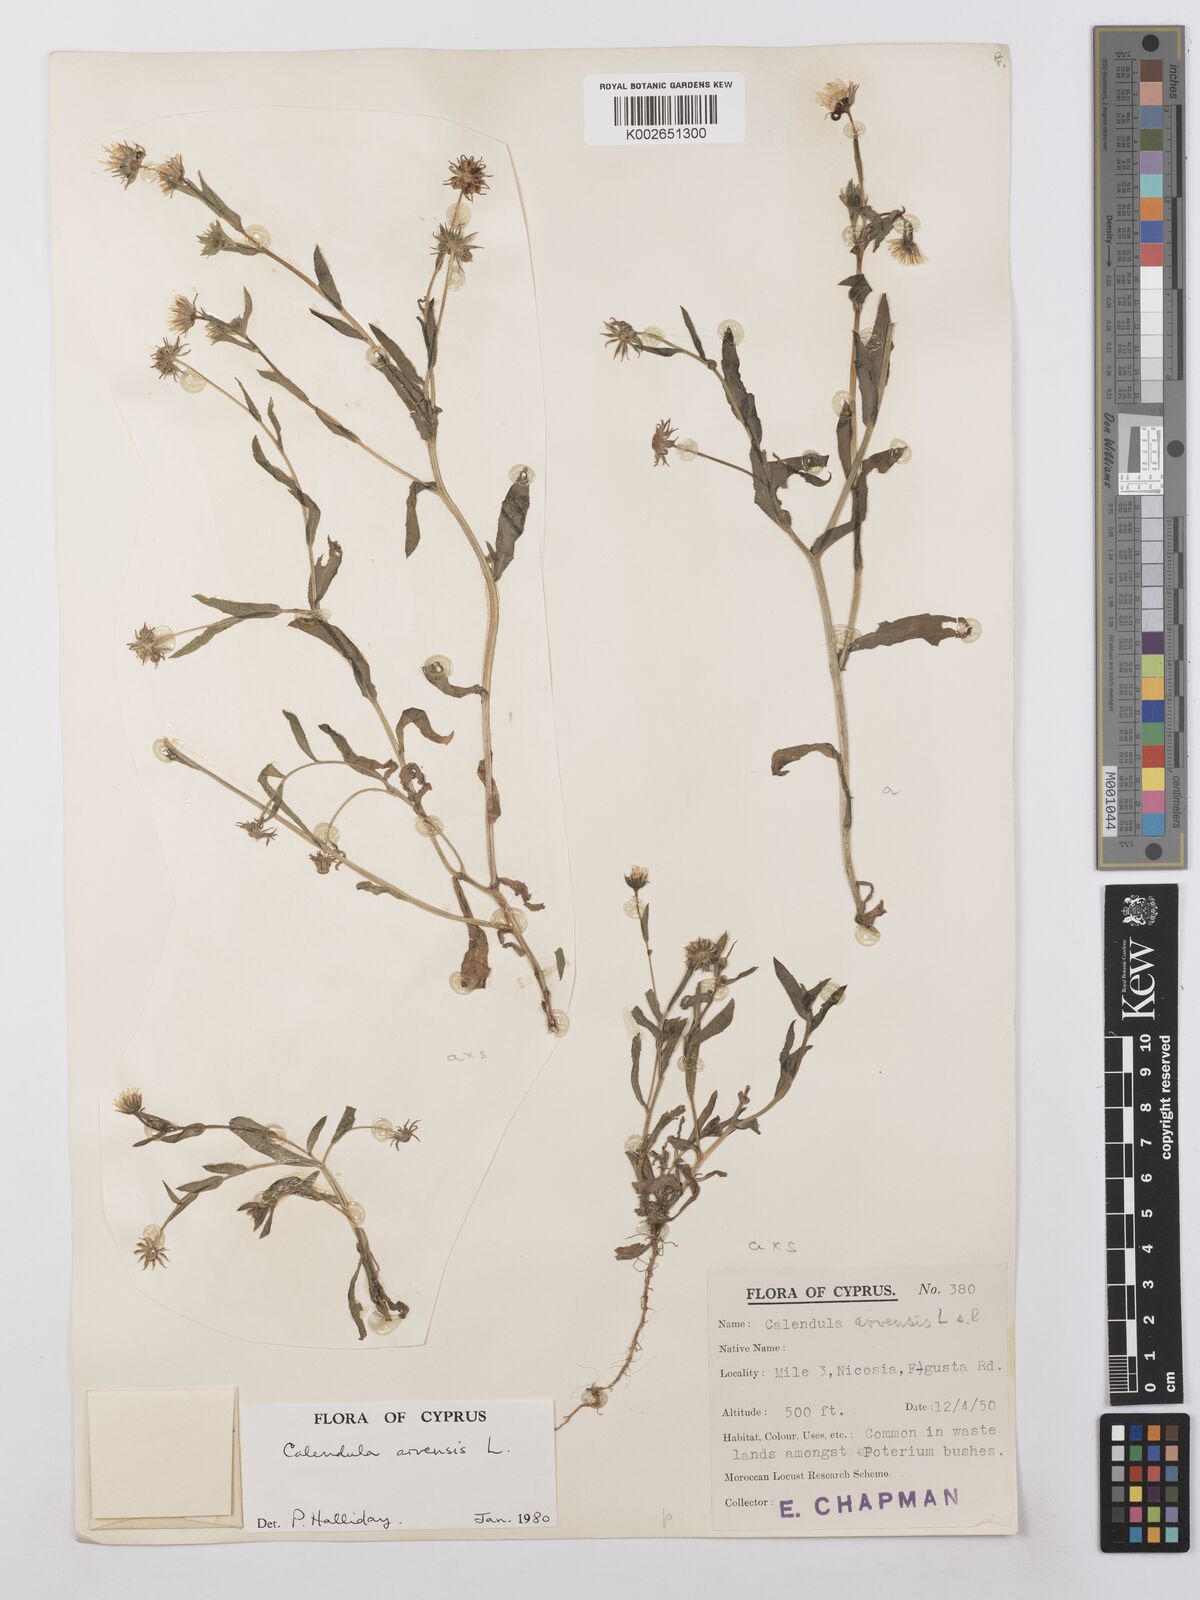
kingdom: Plantae
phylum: Tracheophyta
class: Magnoliopsida
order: Asterales
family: Asteraceae
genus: Calendula
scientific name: Calendula arvensis
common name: Field marigold
